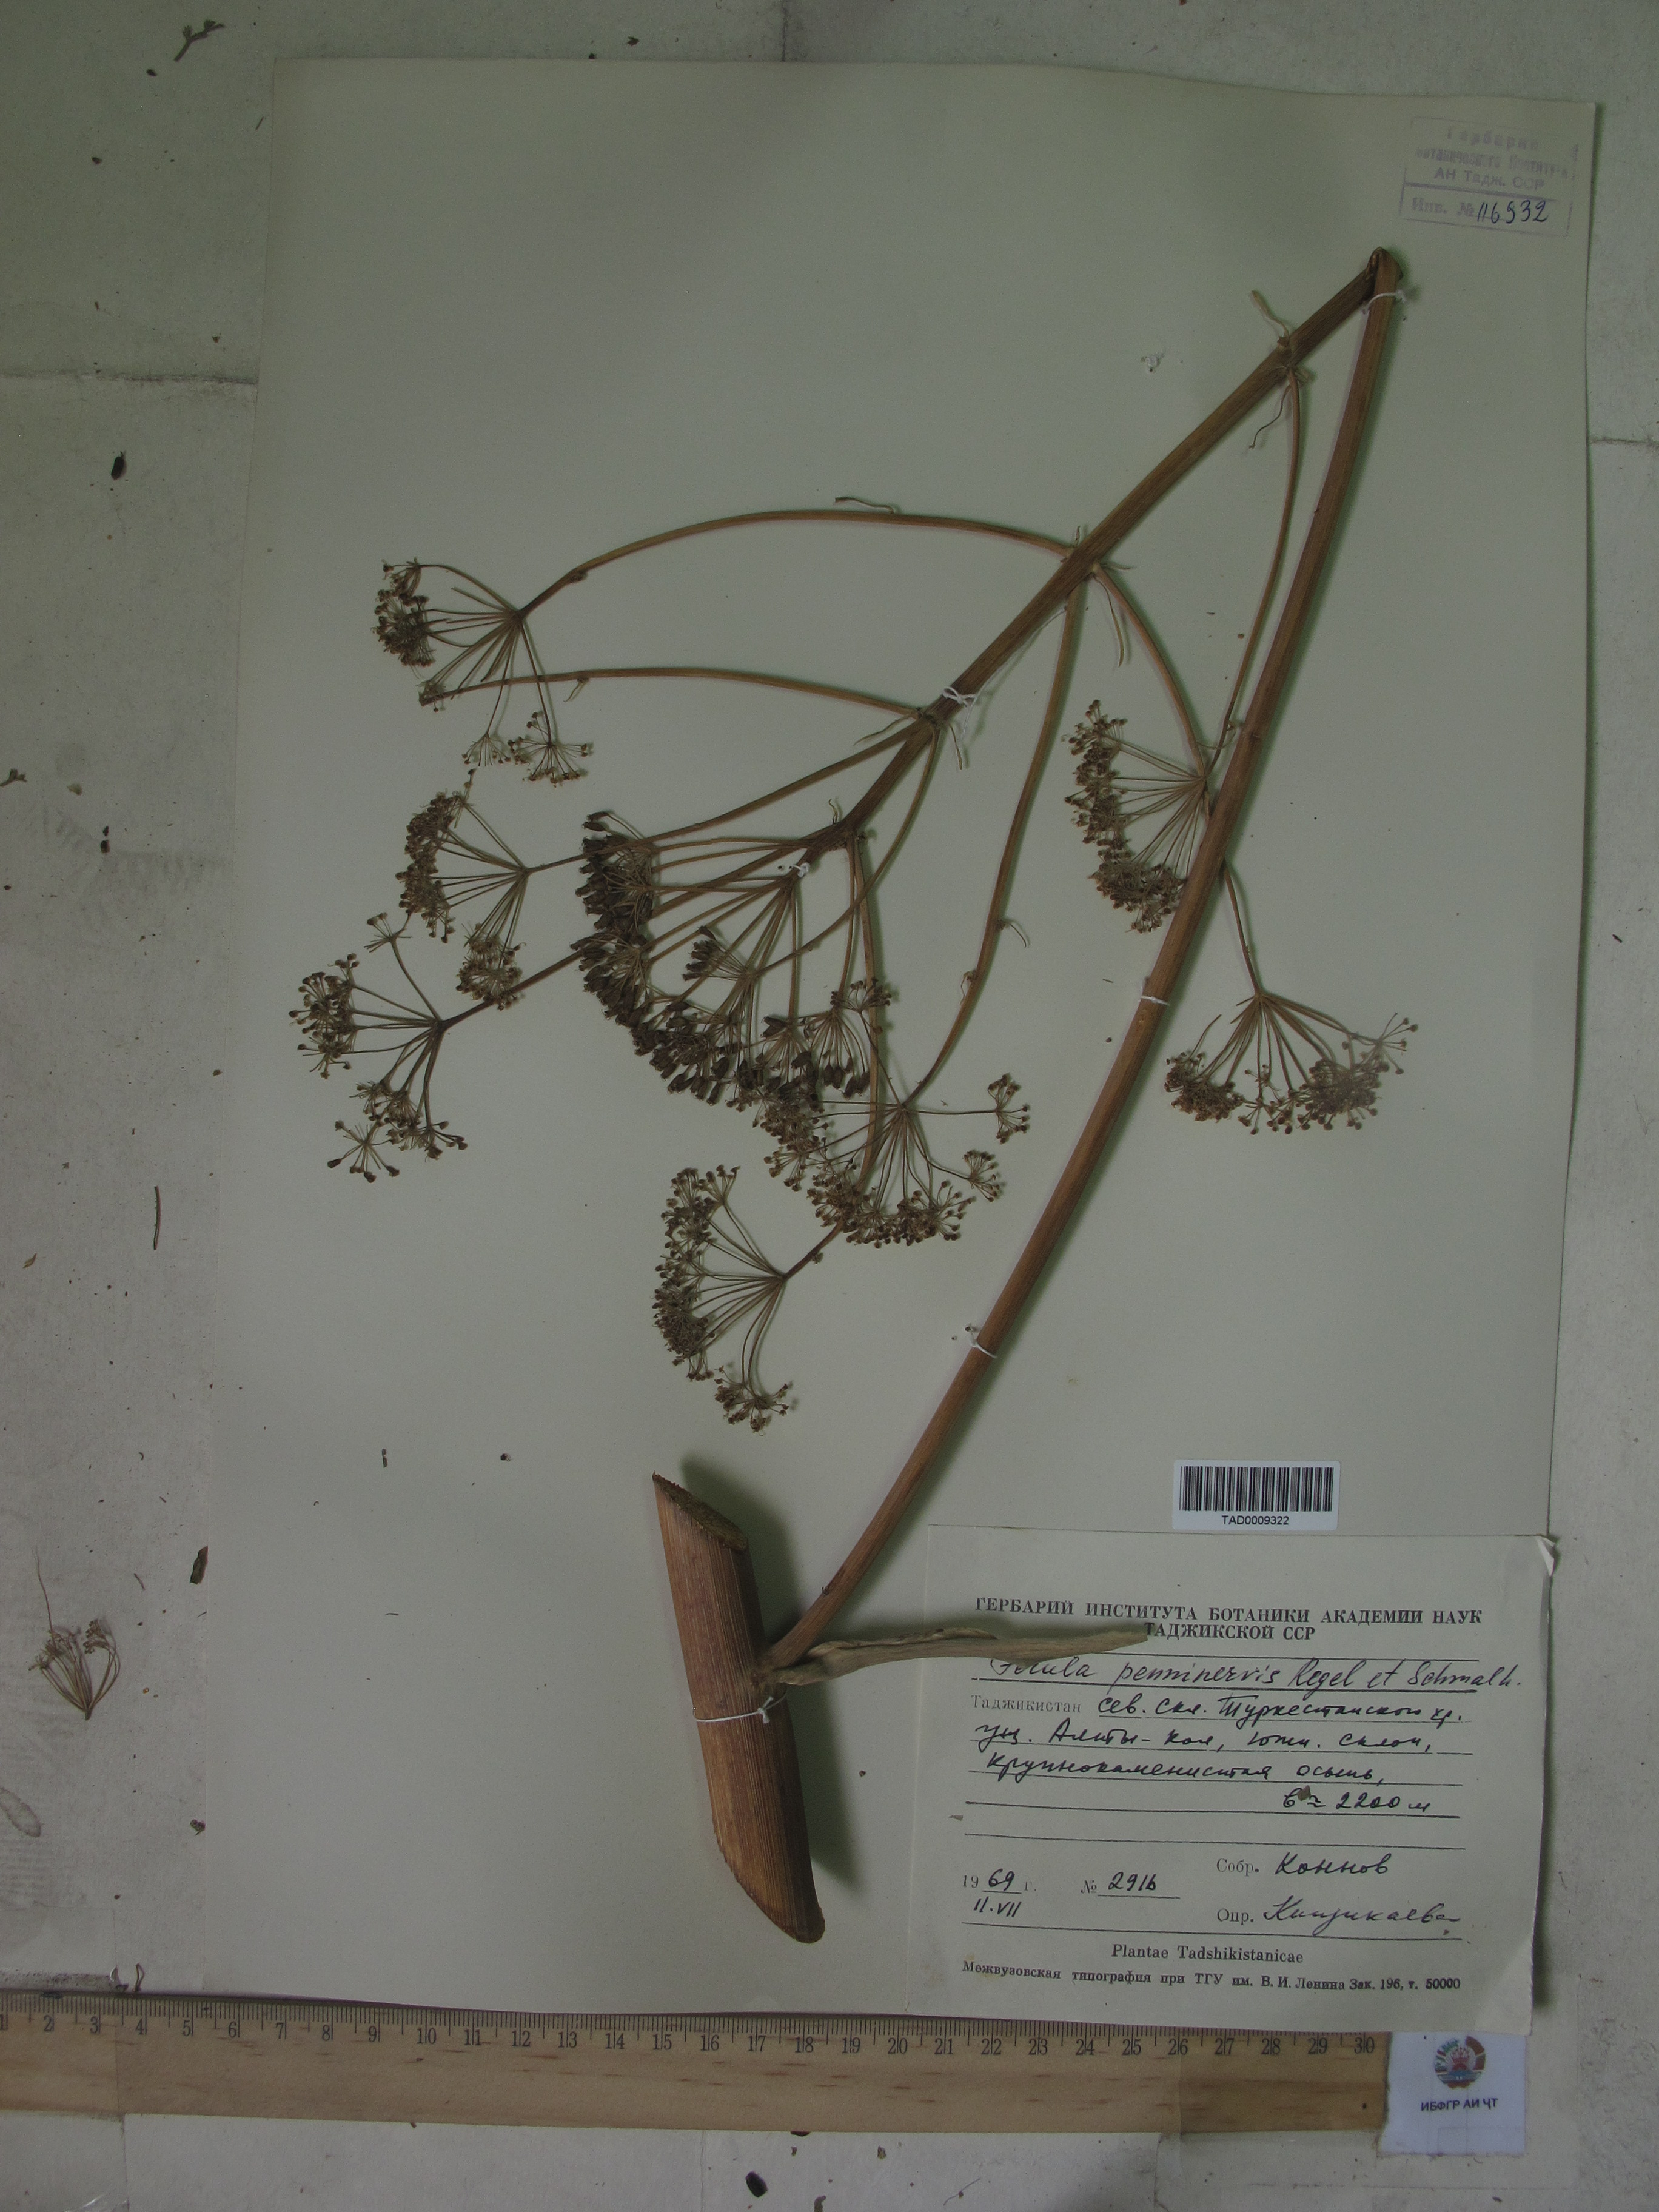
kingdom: Plantae
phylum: Tracheophyta
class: Magnoliopsida
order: Apiales
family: Apiaceae
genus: Ferula
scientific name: Ferula penninervis
